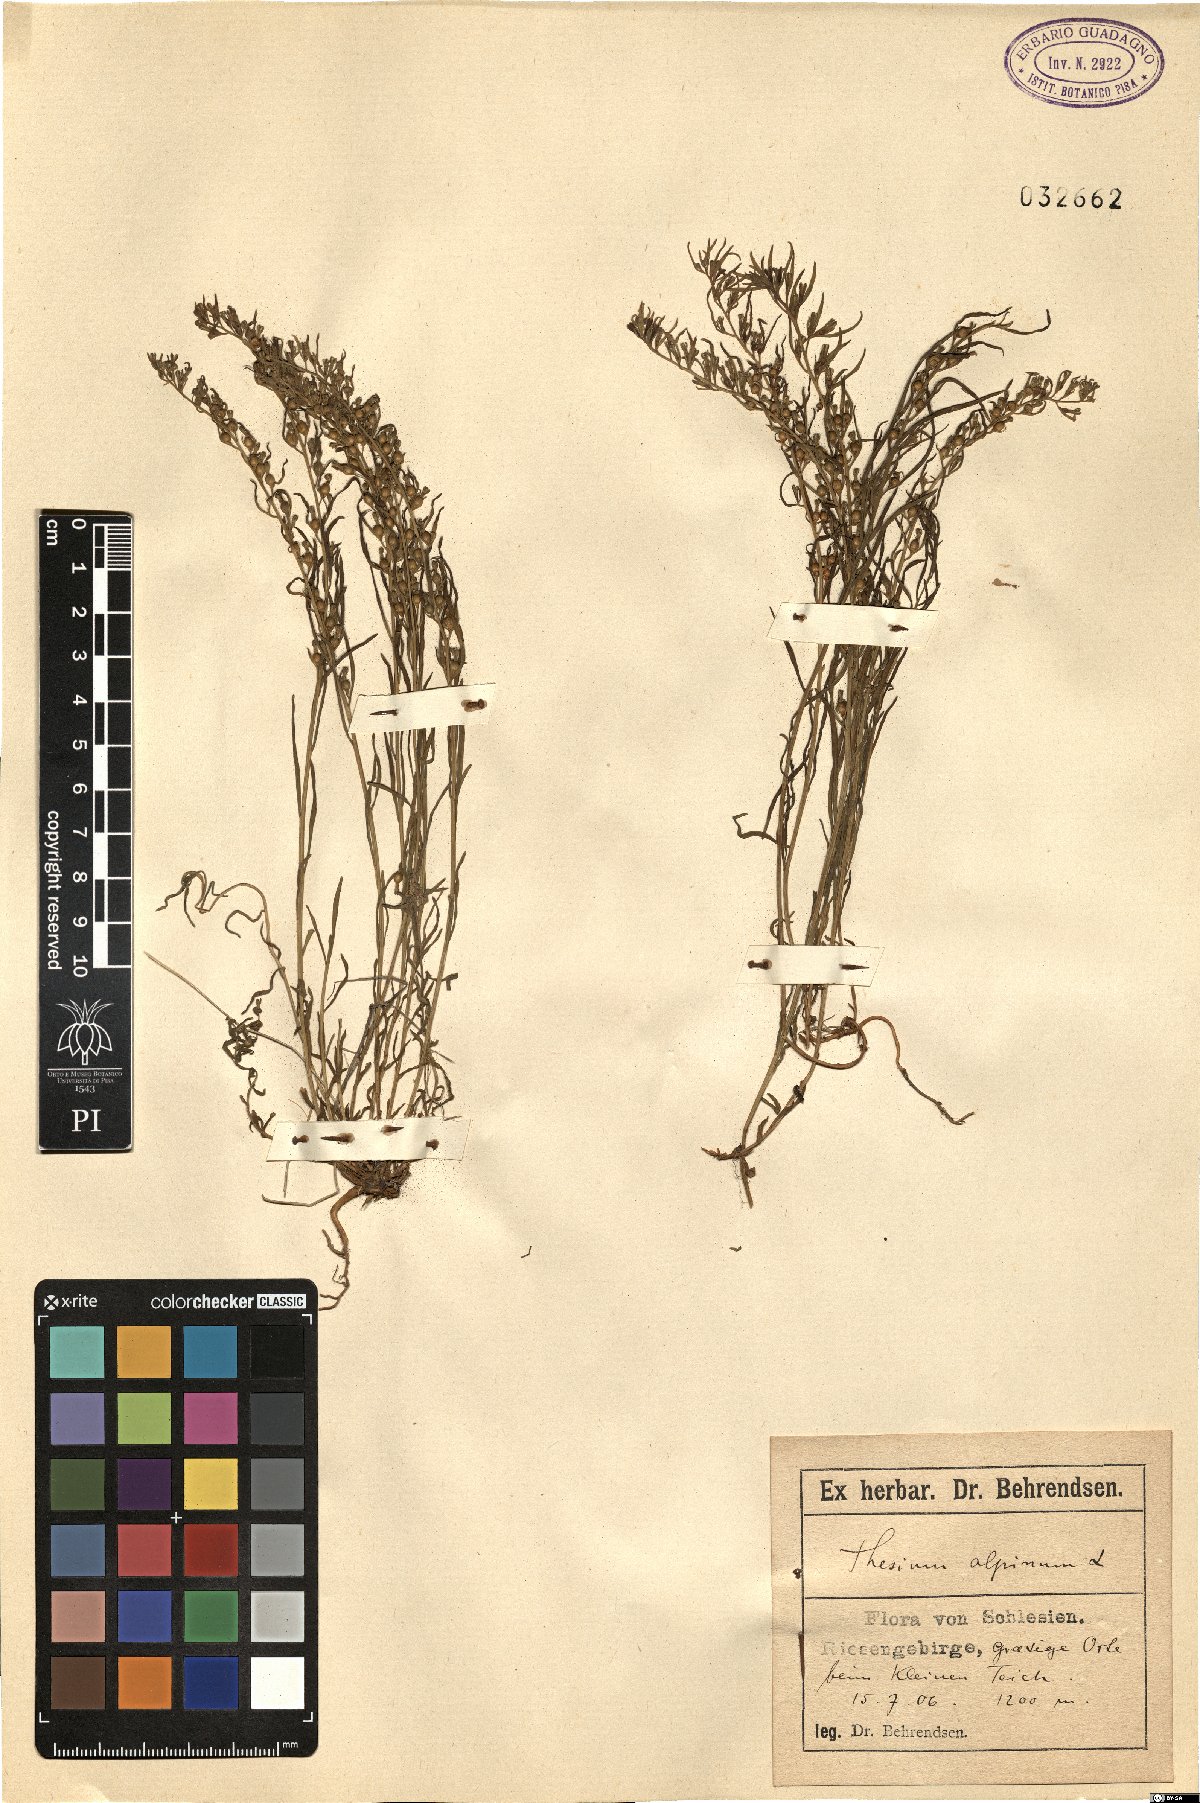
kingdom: Plantae
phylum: Tracheophyta
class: Magnoliopsida
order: Santalales
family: Thesiaceae
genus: Thesium
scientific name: Thesium alpinum
